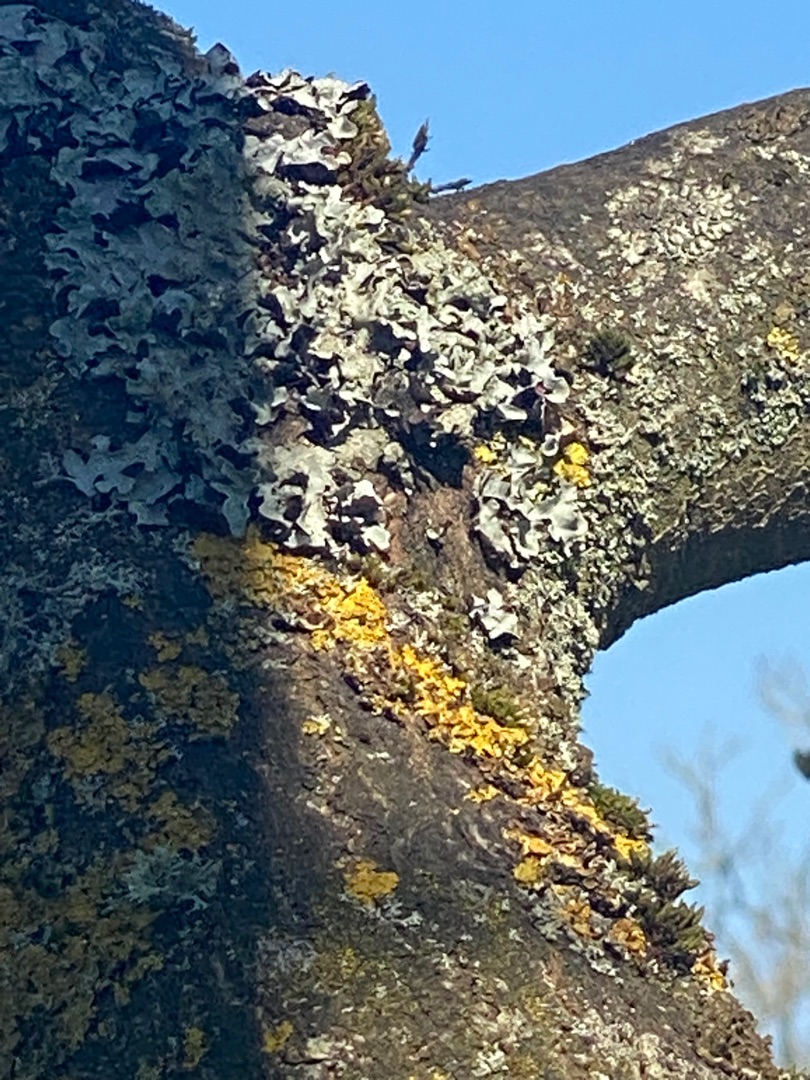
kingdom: Fungi
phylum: Ascomycota
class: Lecanoromycetes
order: Teloschistales
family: Teloschistaceae
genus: Xanthoria
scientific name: Xanthoria parietina
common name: Almindelig væggelav
